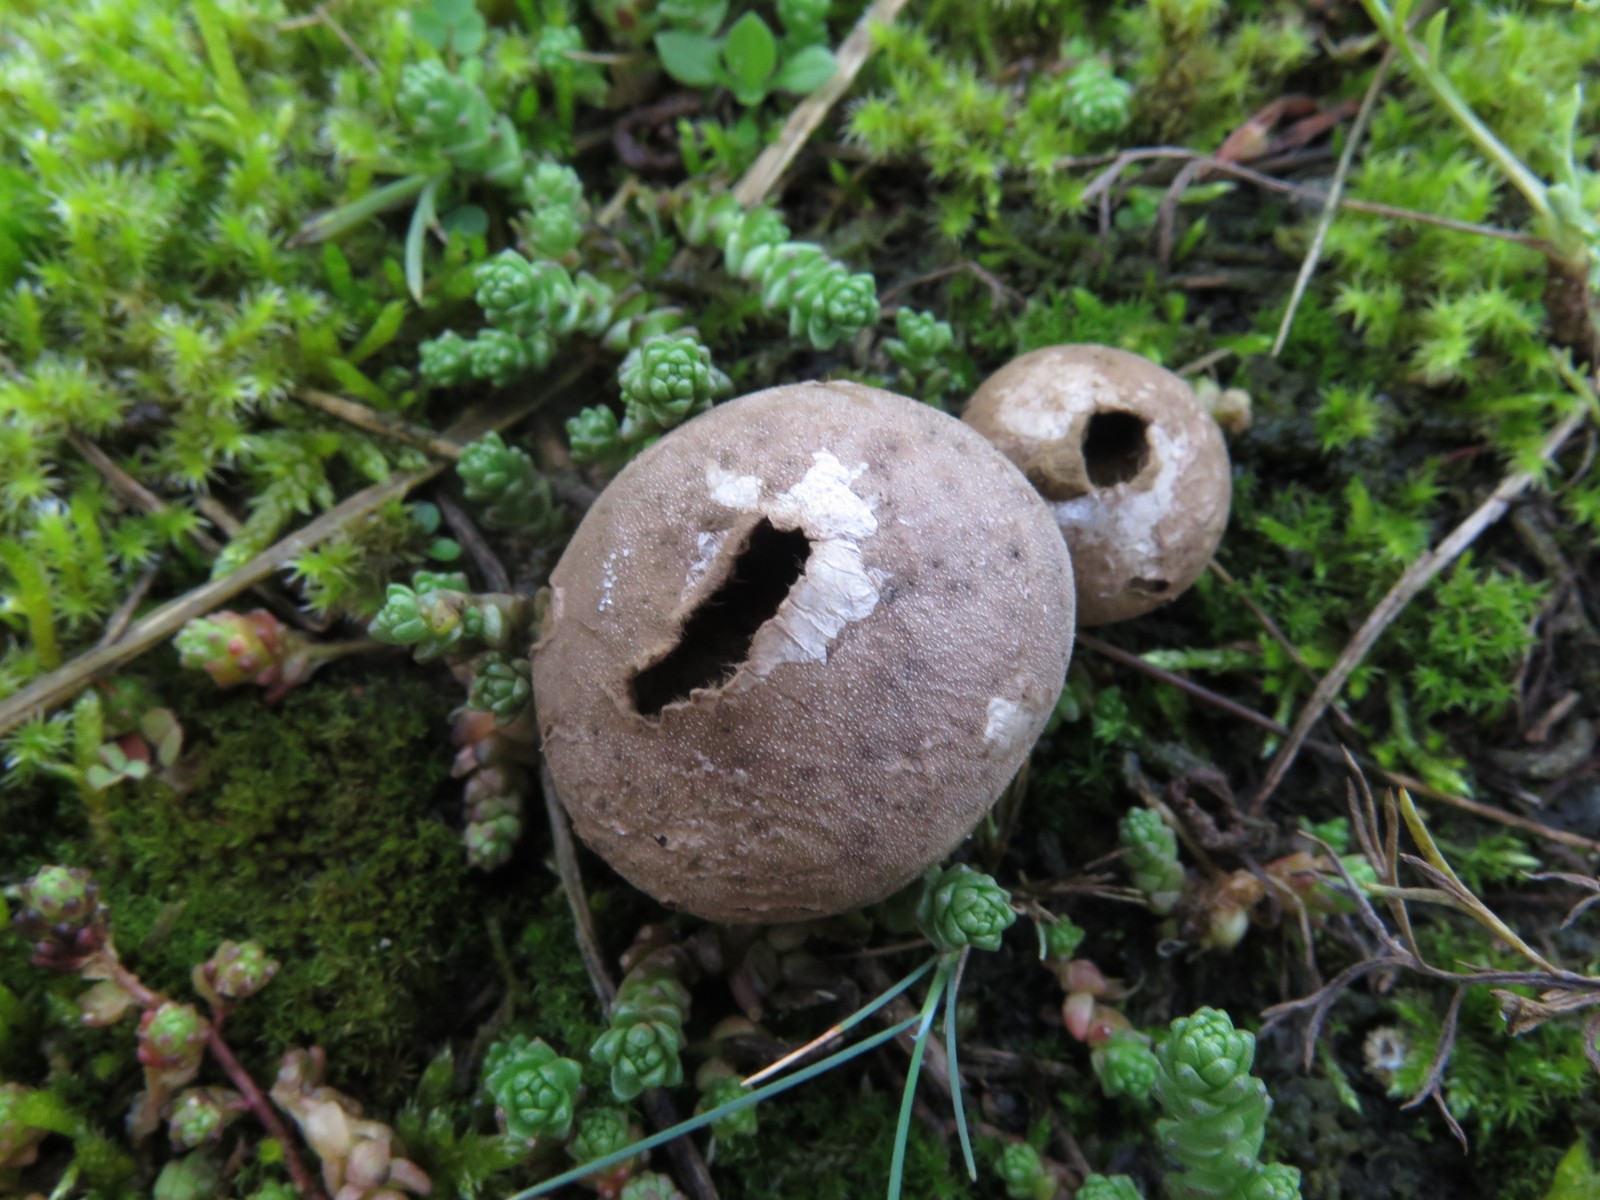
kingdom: Fungi
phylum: Basidiomycota
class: Agaricomycetes
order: Agaricales
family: Agaricaceae
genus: Lycoperdon
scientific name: Lycoperdon
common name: støvbold
